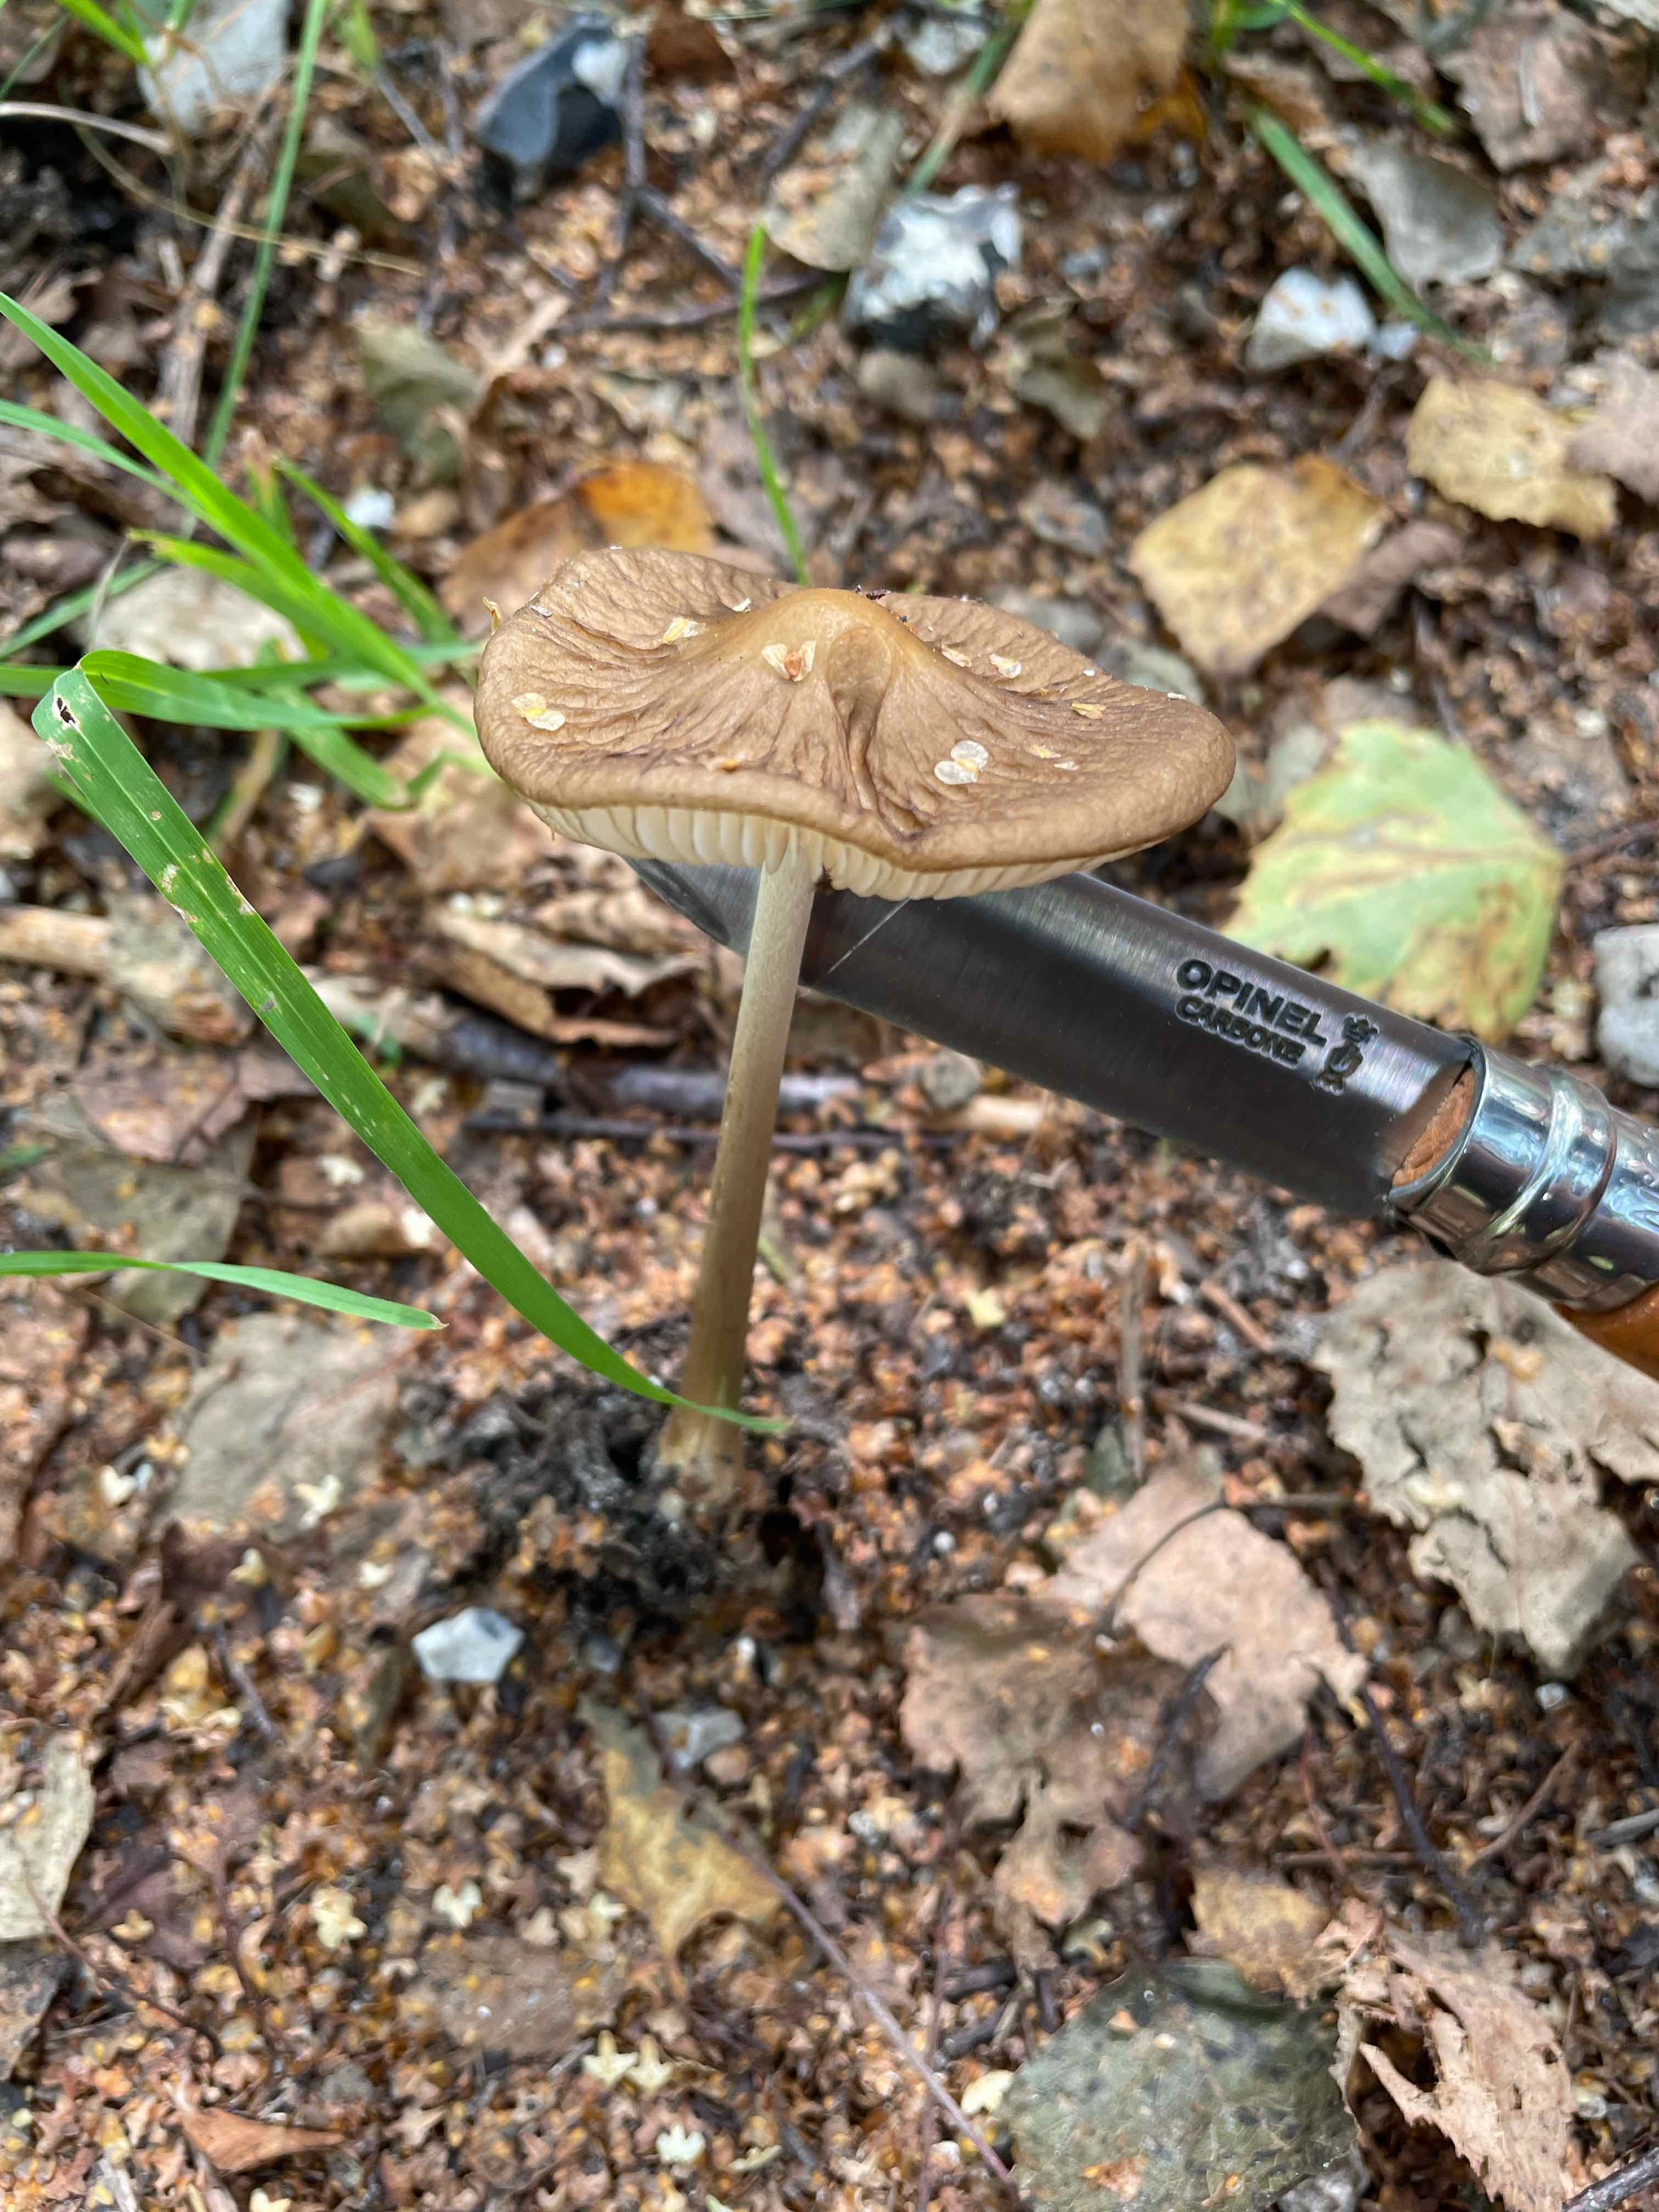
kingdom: Fungi
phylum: Basidiomycota
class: Agaricomycetes
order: Agaricales
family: Physalacriaceae
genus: Hymenopellis
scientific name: Hymenopellis radicata
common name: almindelig pælerodshat
